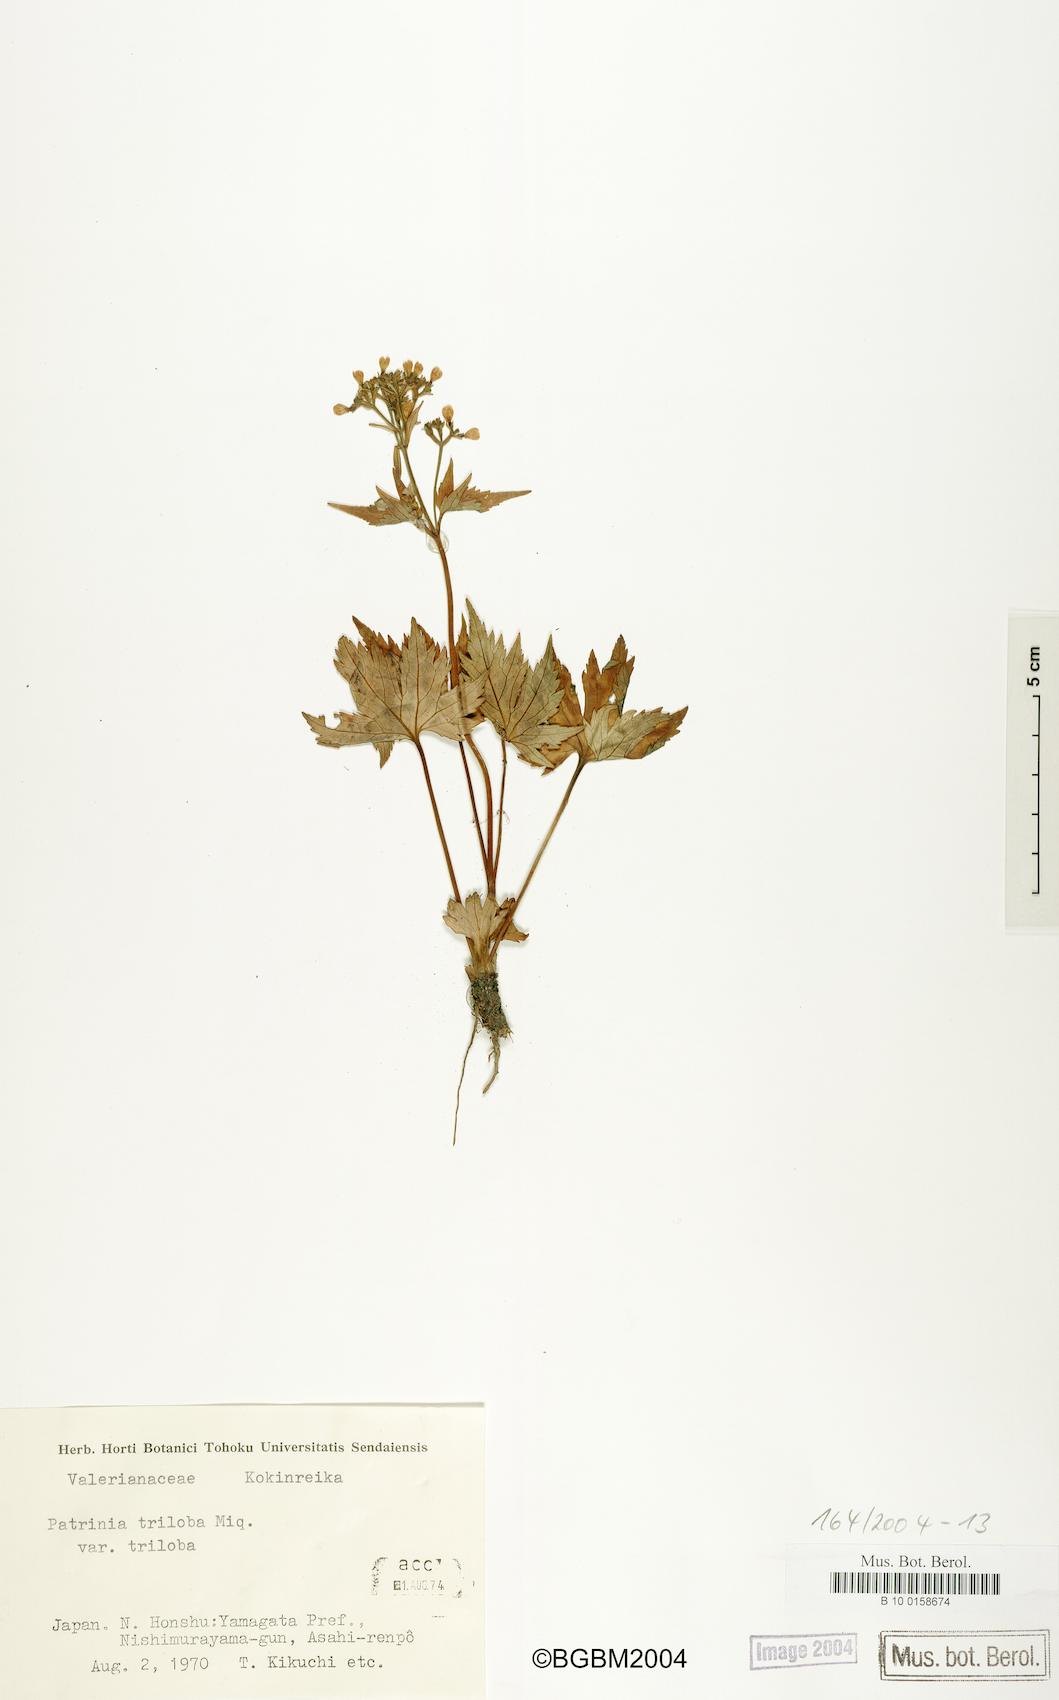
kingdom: Plantae
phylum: Tracheophyta
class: Magnoliopsida
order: Dipsacales
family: Caprifoliaceae
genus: Patrinia
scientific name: Patrinia triloba
